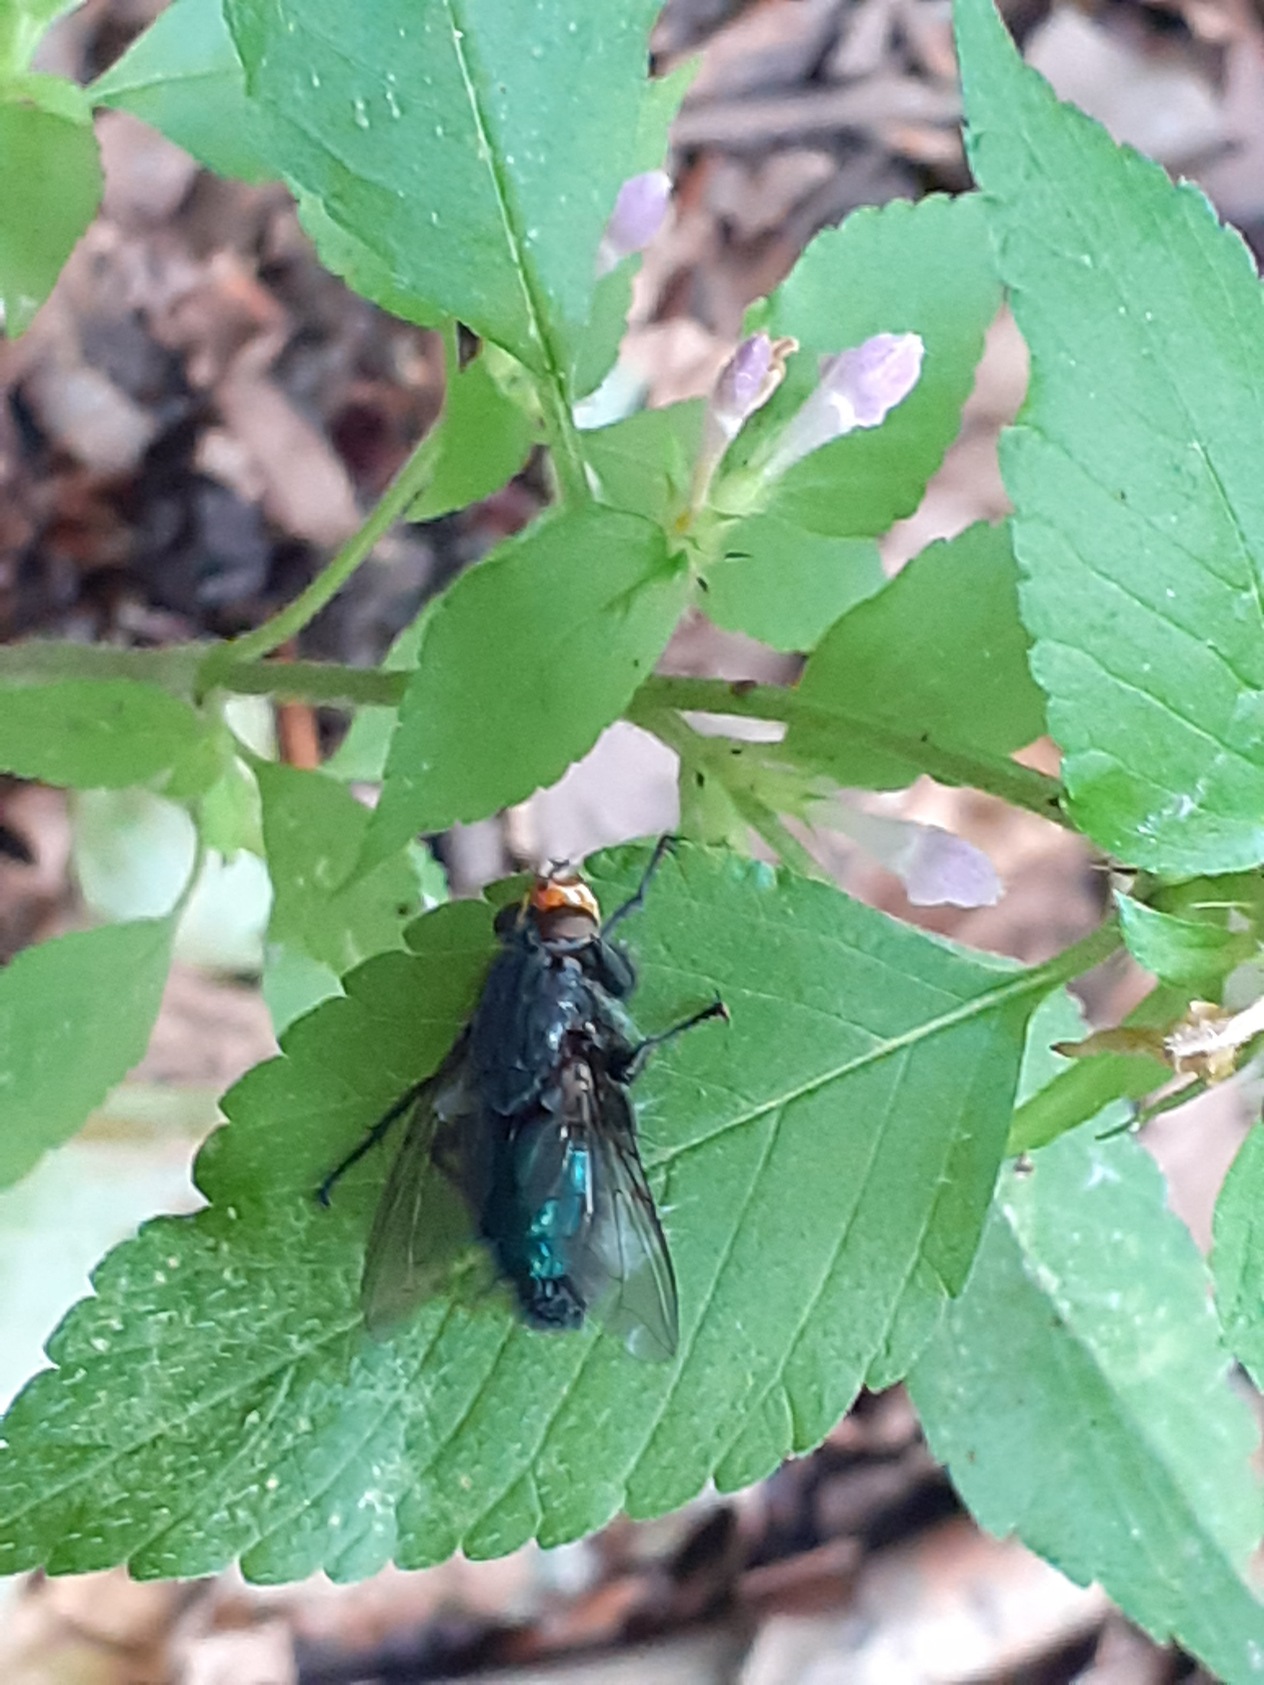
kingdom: Animalia
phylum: Arthropoda
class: Insecta
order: Diptera
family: Calliphoridae
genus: Cynomya
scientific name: Cynomya mortuorum
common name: Dødsflue
